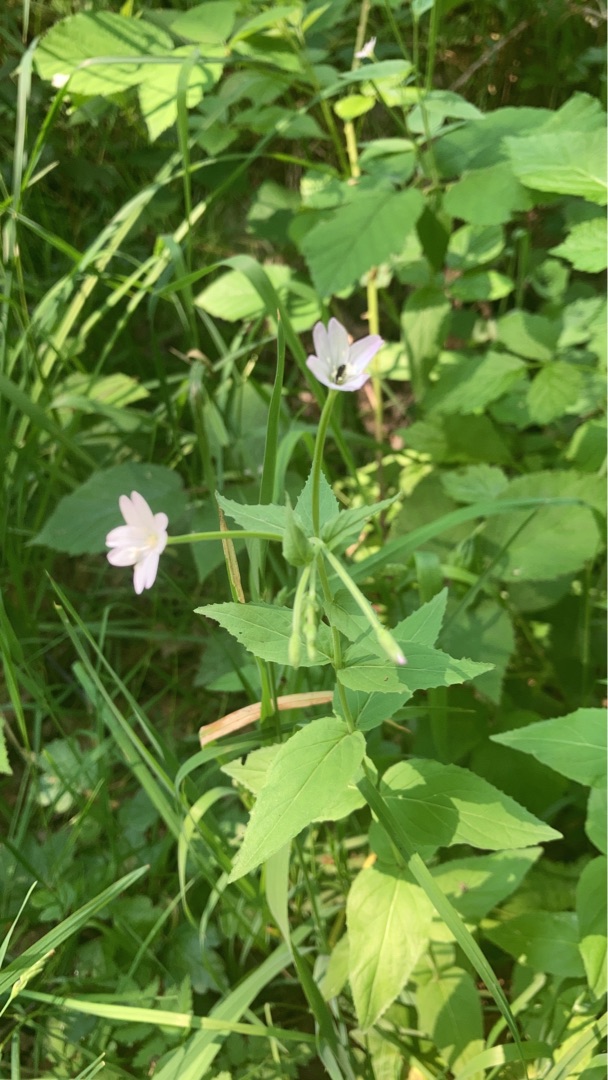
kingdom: Plantae
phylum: Tracheophyta
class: Magnoliopsida
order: Myrtales
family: Onagraceae
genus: Epilobium
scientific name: Epilobium montanum
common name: Glat dueurt
